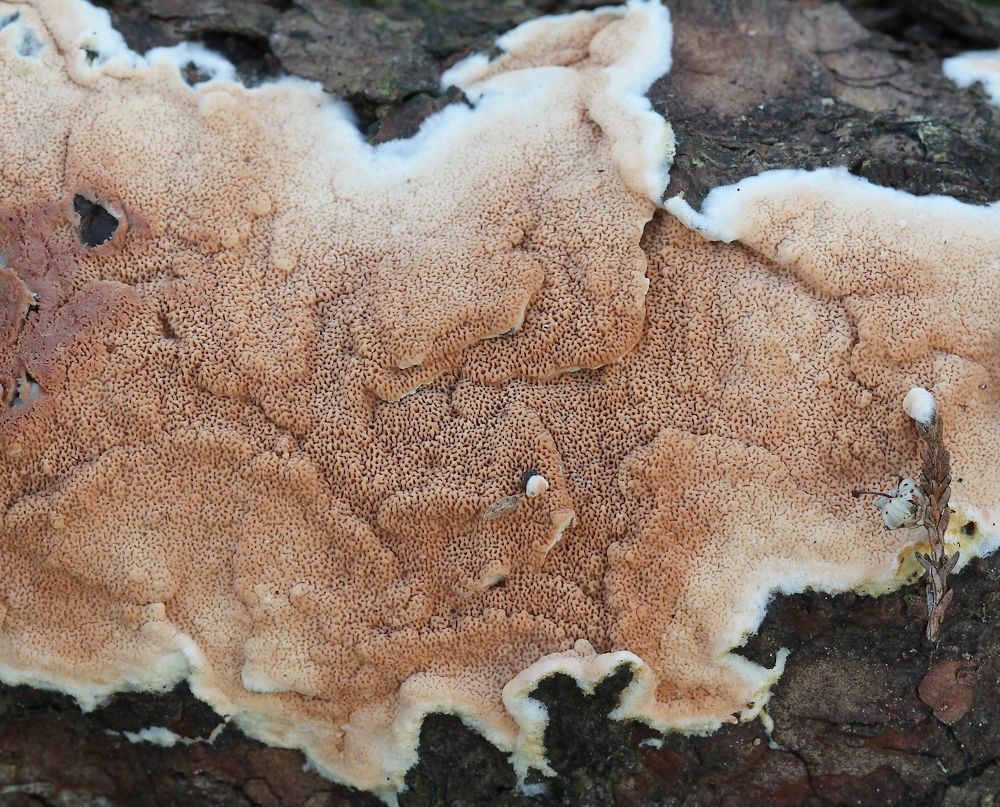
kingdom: Fungi
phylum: Basidiomycota
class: Agaricomycetes
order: Polyporales
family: Irpicaceae
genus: Meruliopsis
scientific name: Meruliopsis taxicola
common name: purpurbrun foldporesvamp
